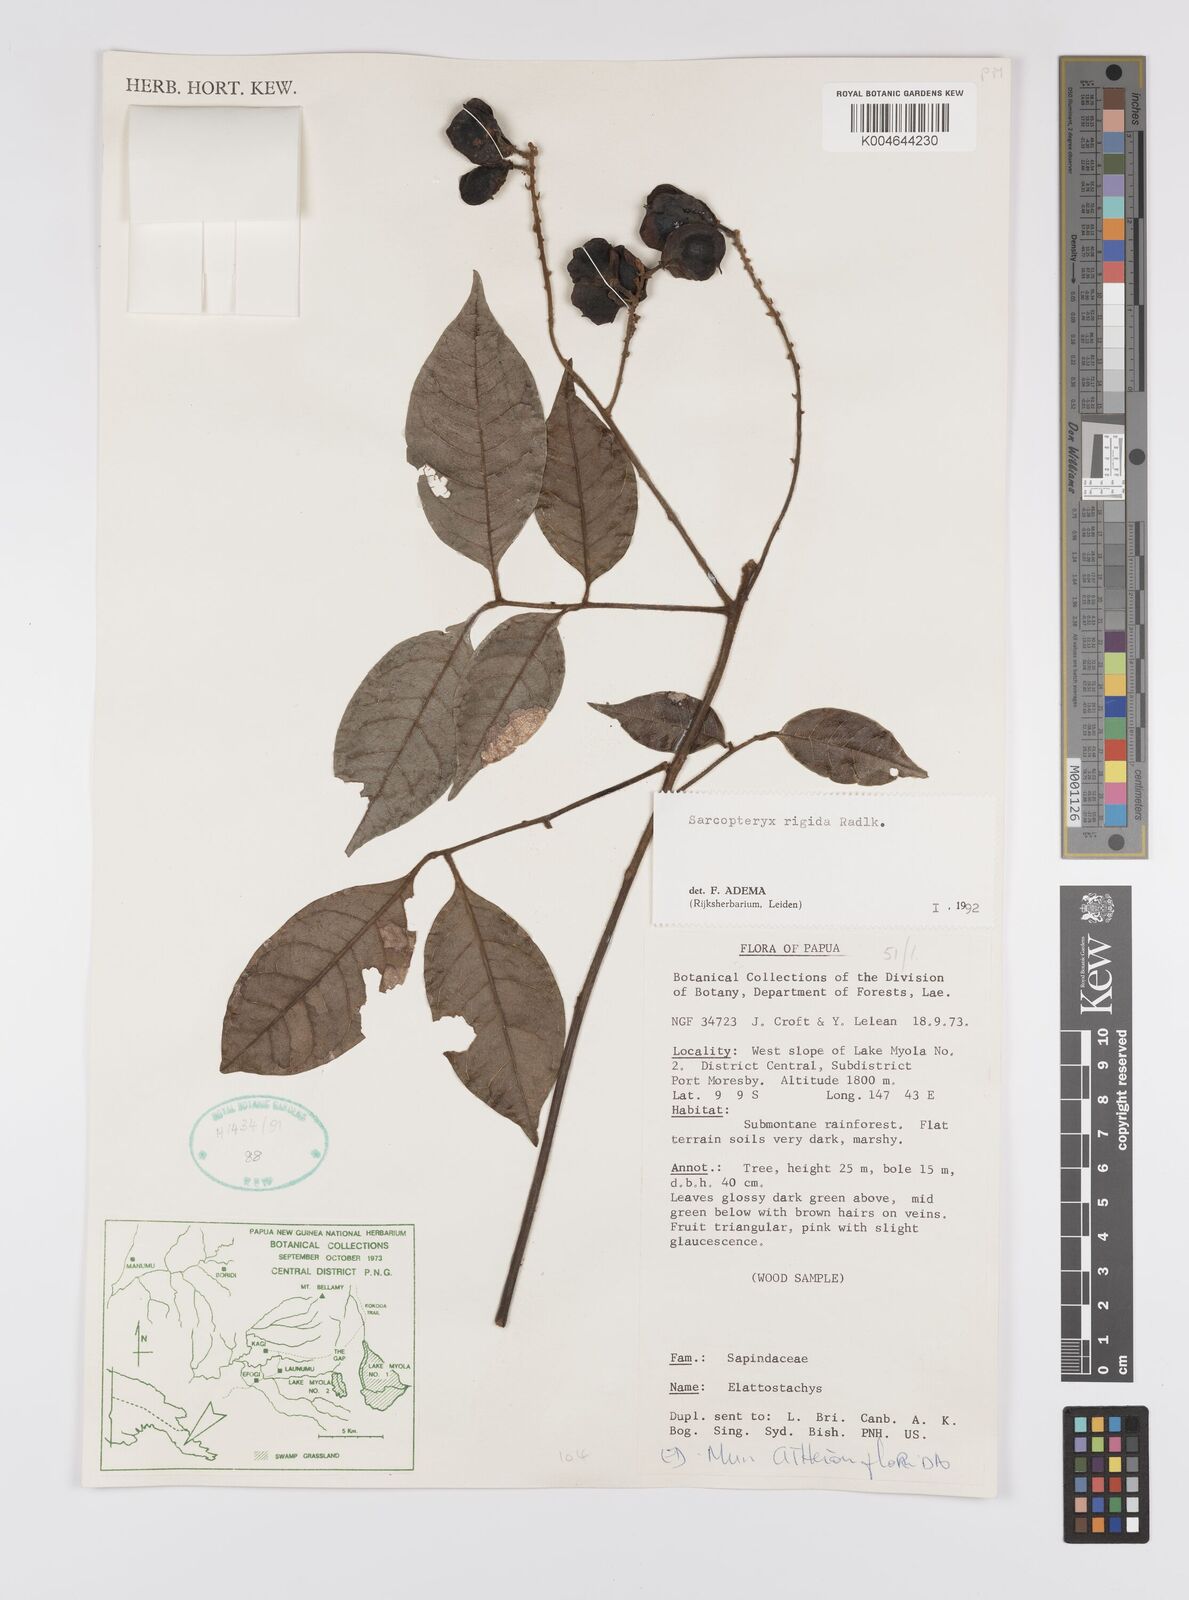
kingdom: Plantae
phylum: Tracheophyta
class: Magnoliopsida
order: Sapindales
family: Sapindaceae
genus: Sarcopteryx
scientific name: Sarcopteryx rigida
